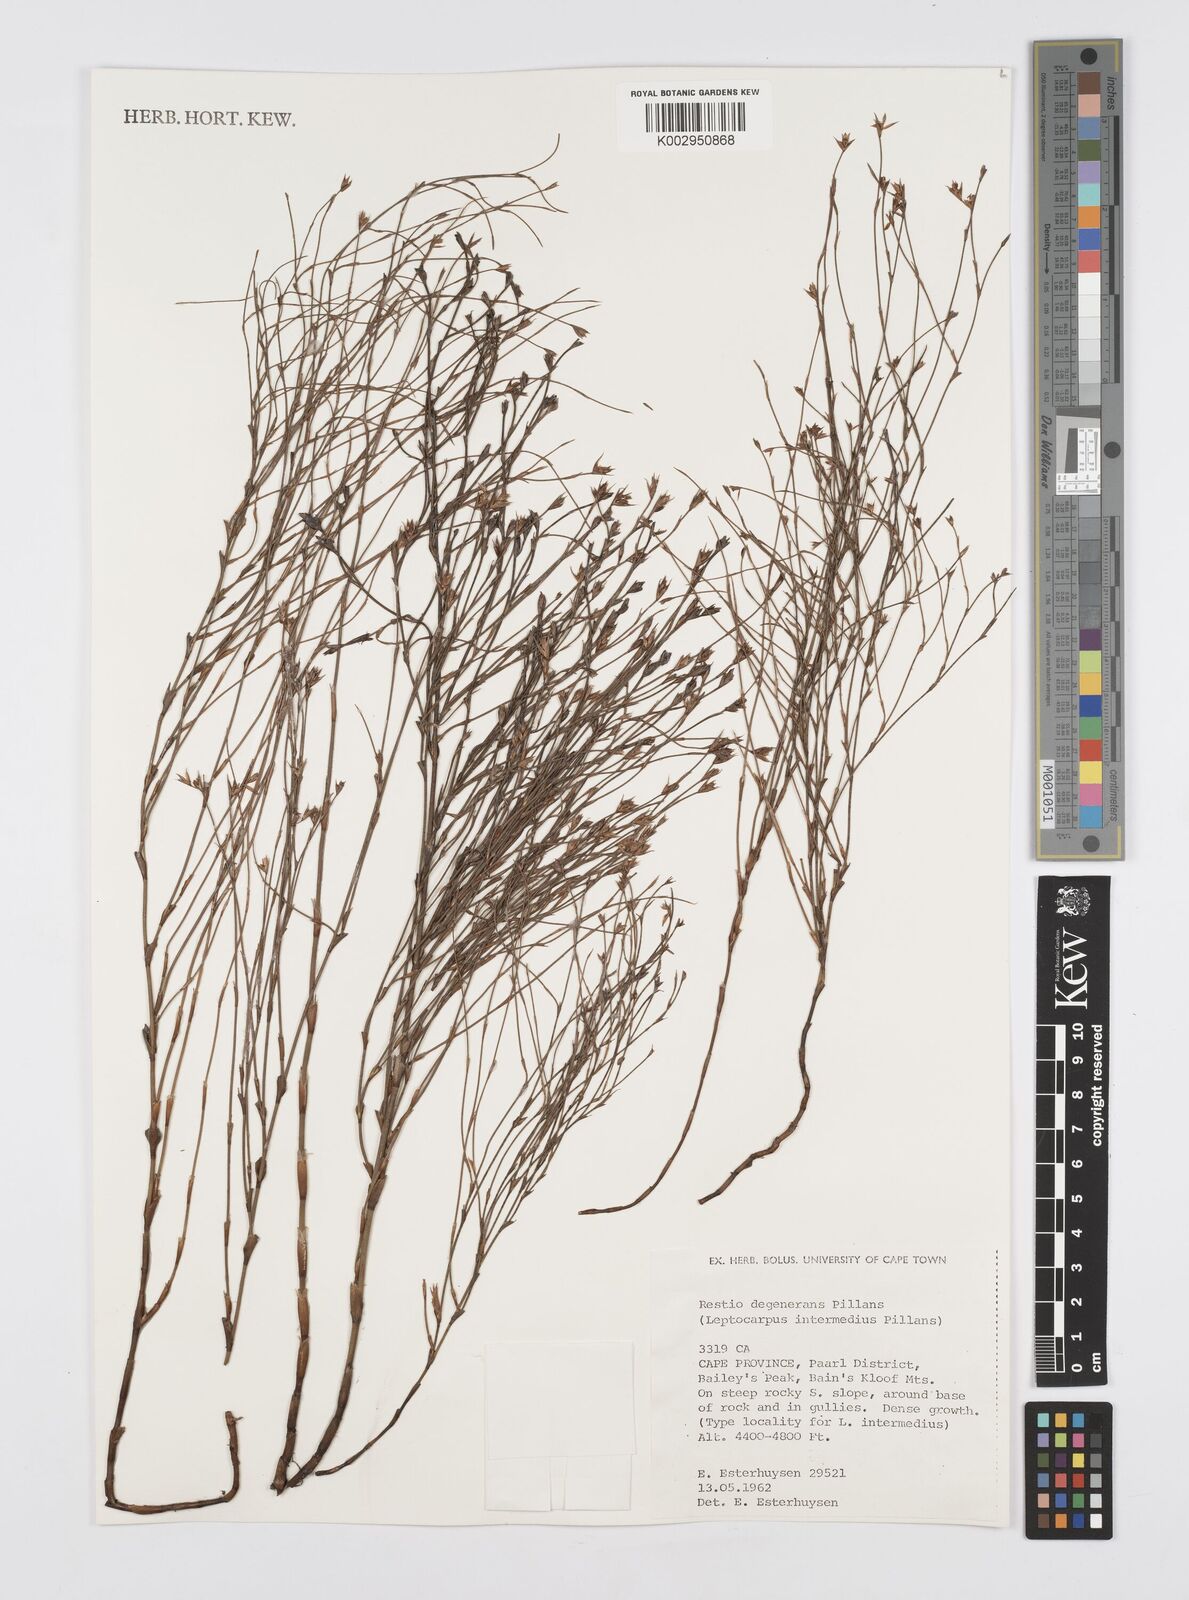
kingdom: Plantae
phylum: Tracheophyta
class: Liliopsida
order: Poales
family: Restionaceae
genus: Restio
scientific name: Restio degenerans
